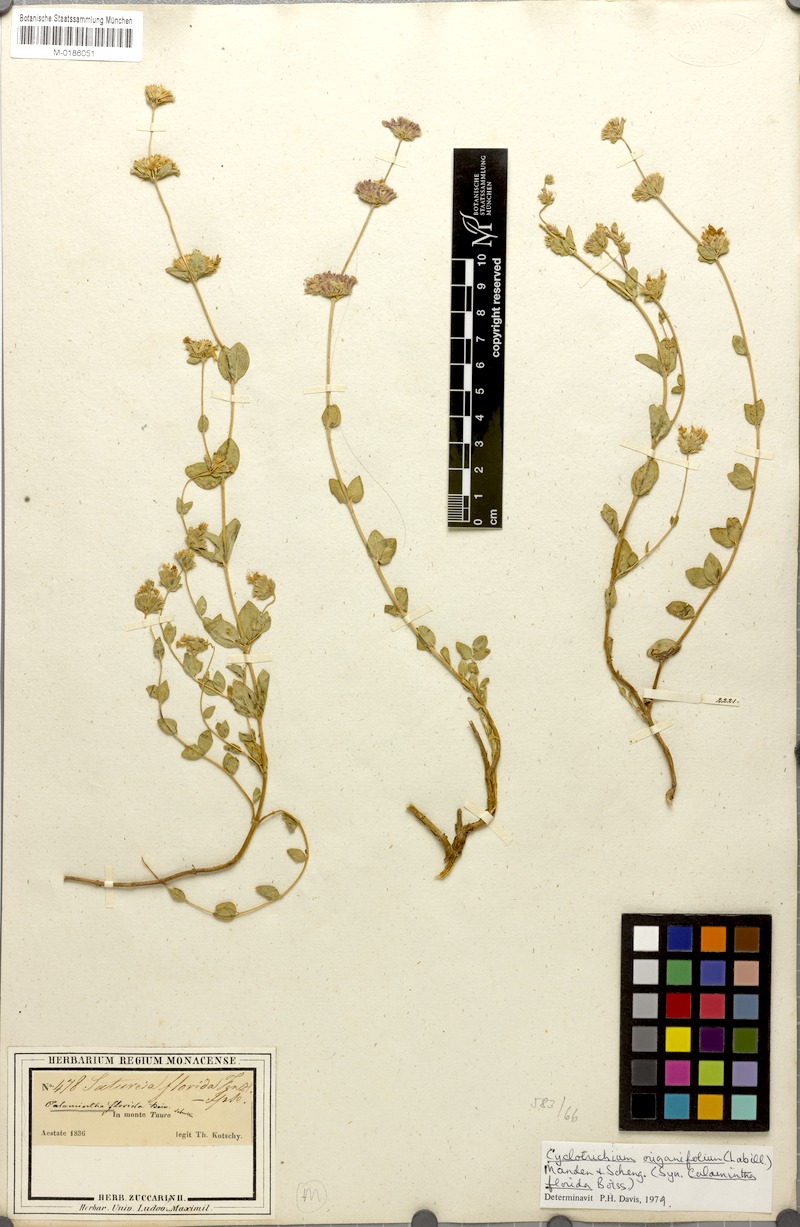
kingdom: Plantae
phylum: Tracheophyta
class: Magnoliopsida
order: Lamiales
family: Lamiaceae
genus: Cyclotrichium
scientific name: Cyclotrichium origanifolium
